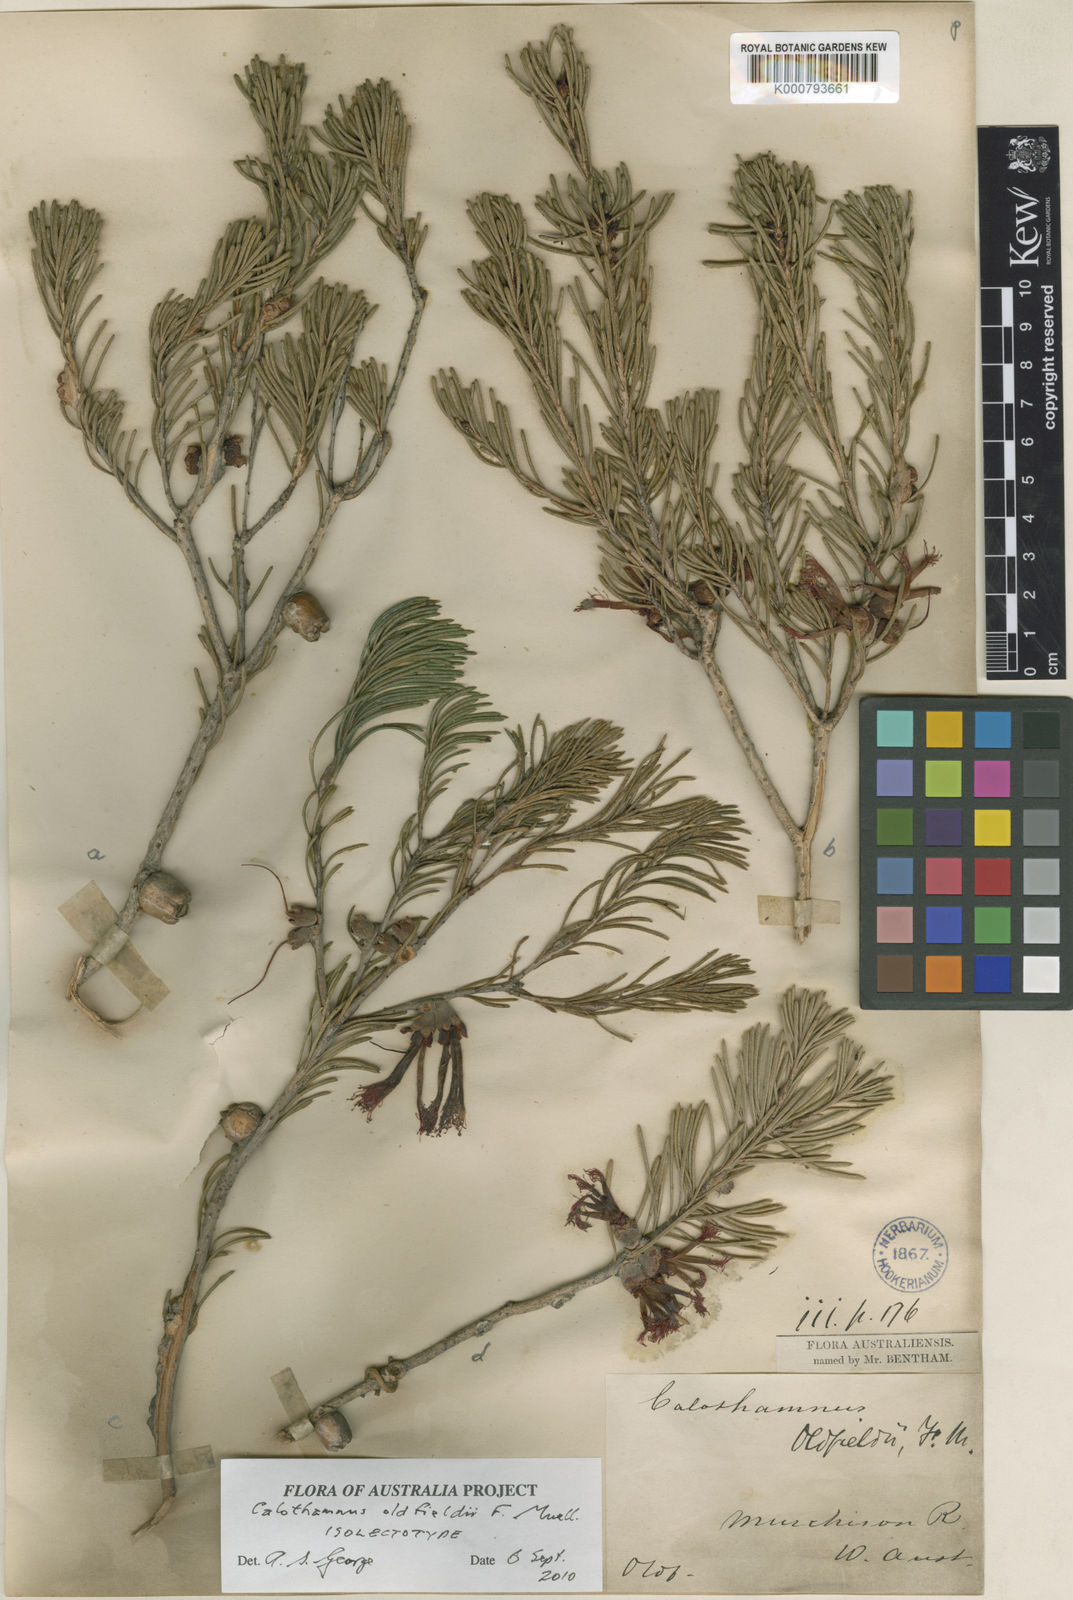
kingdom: Plantae
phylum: Tracheophyta
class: Magnoliopsida
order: Myrtales
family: Myrtaceae
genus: Melaleuca
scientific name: Melaleuca augusti-oldfieldii
